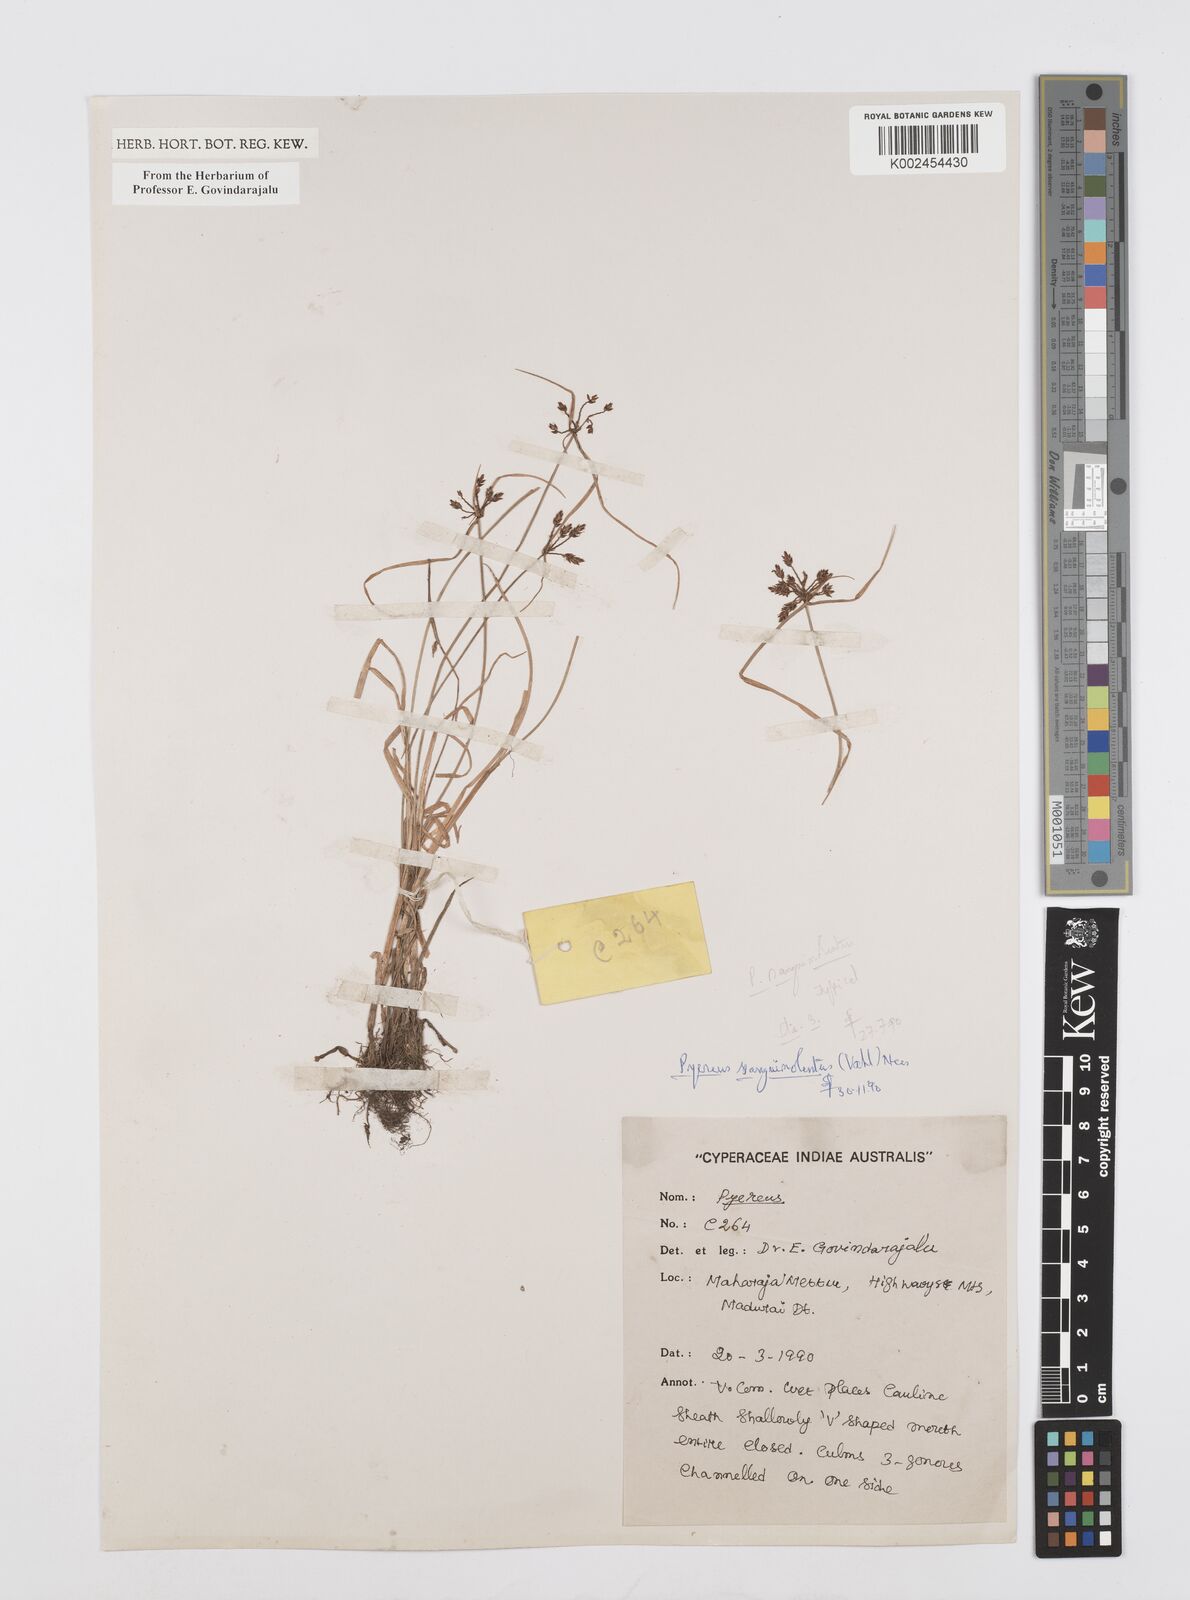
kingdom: Plantae
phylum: Tracheophyta
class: Liliopsida
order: Poales
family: Cyperaceae
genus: Cyperus
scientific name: Cyperus sanguinolentus
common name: Purpleglume flatsedge
